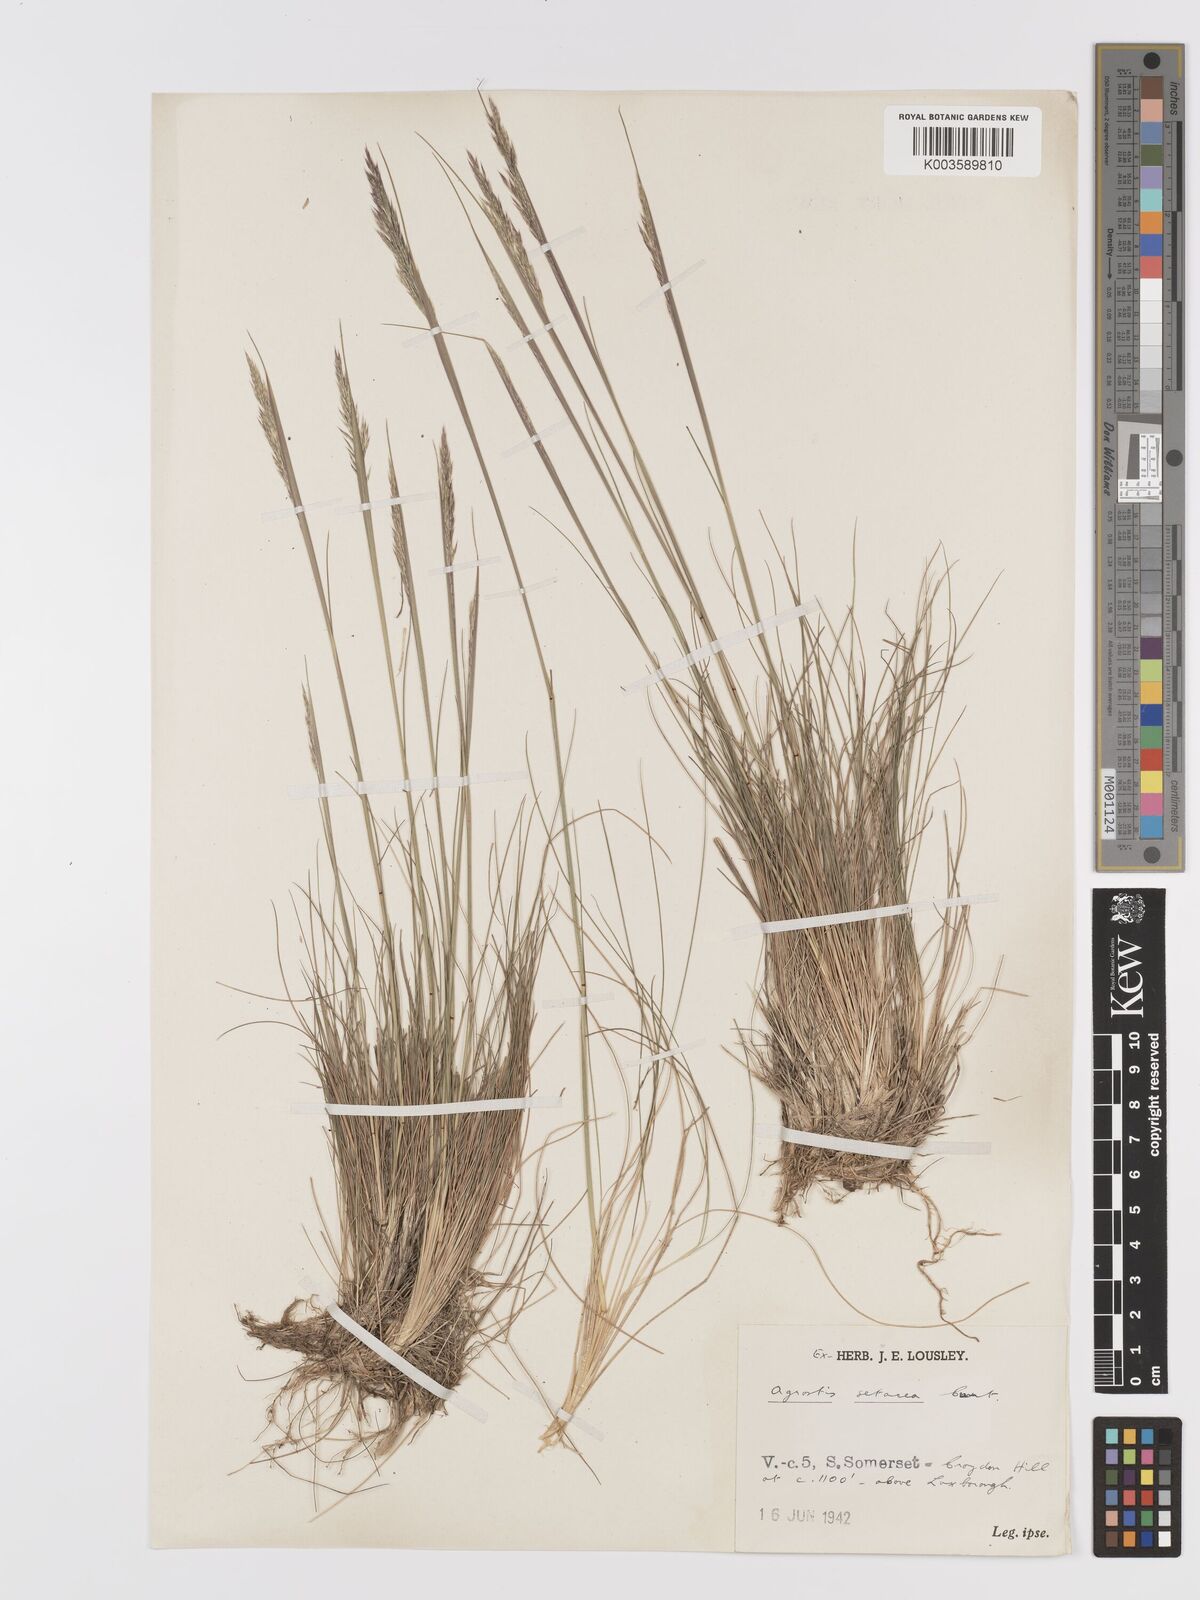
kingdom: Plantae
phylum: Tracheophyta
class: Liliopsida
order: Poales
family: Poaceae
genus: Alpagrostis
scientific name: Alpagrostis setacea
